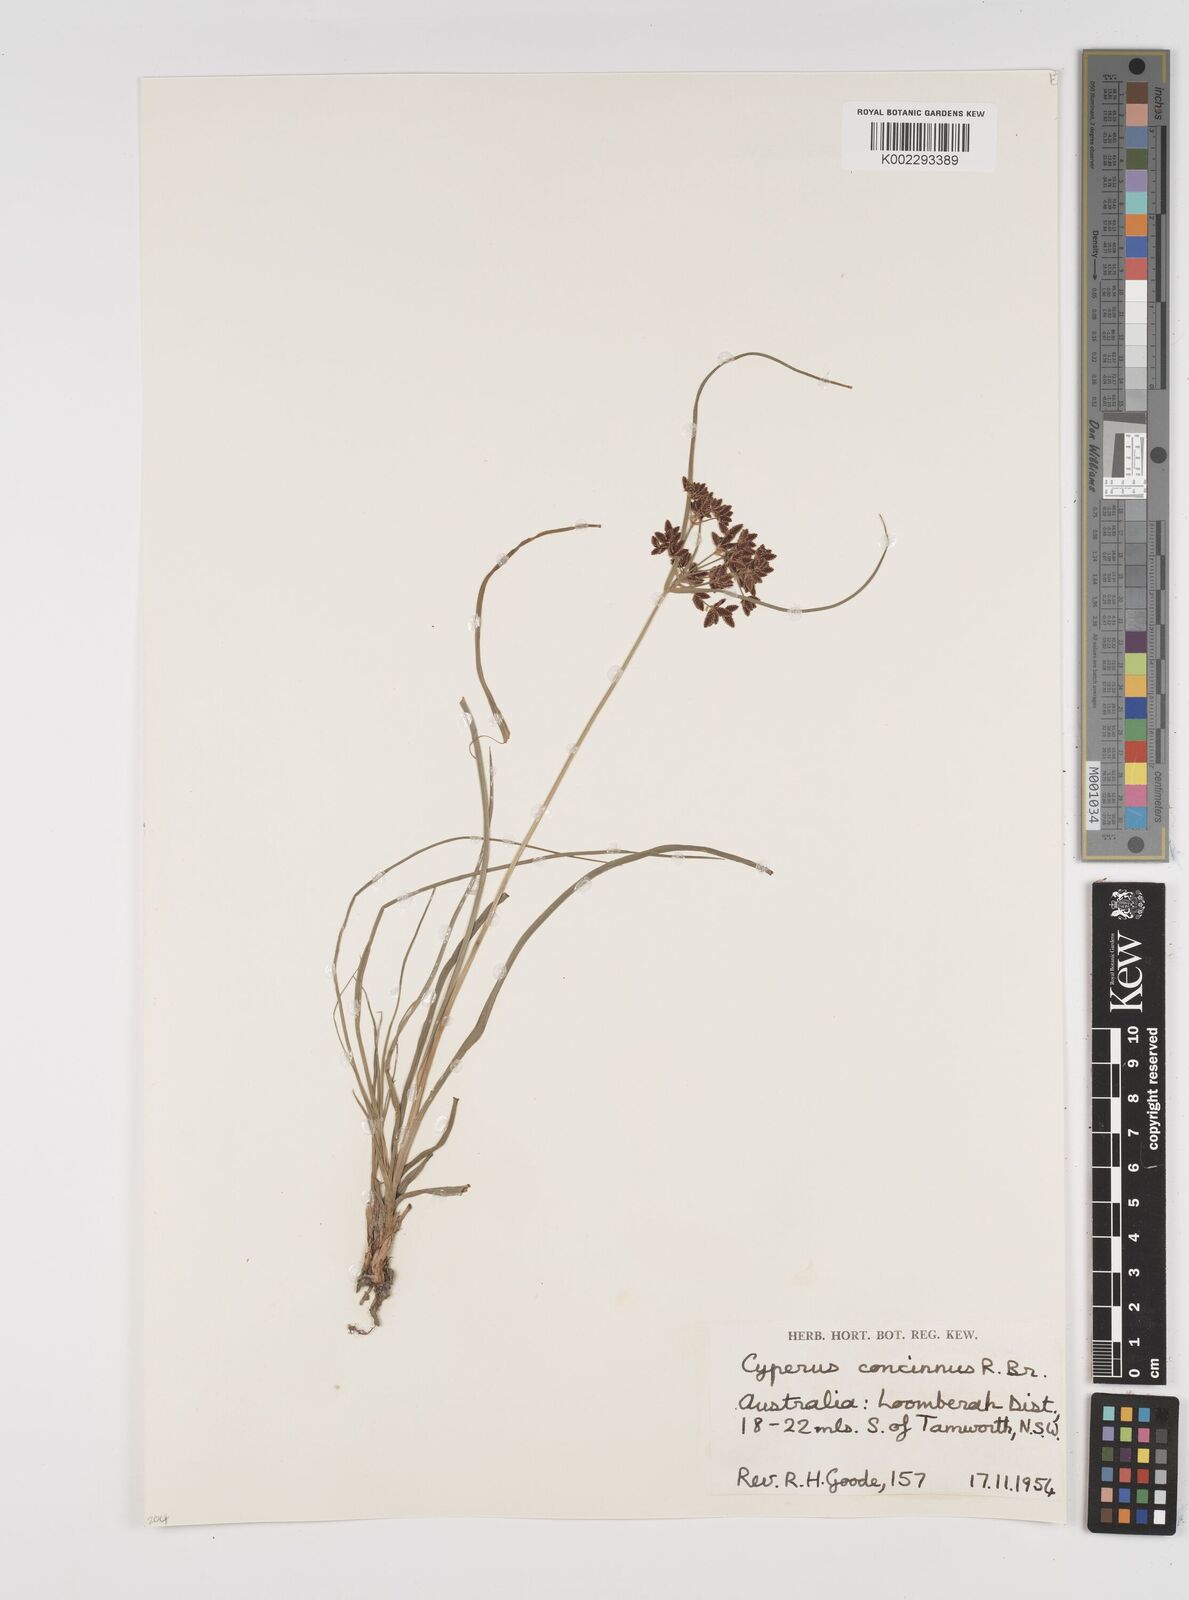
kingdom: Plantae
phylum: Tracheophyta
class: Liliopsida
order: Poales
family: Cyperaceae
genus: Cyperus
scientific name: Cyperus concinnus
